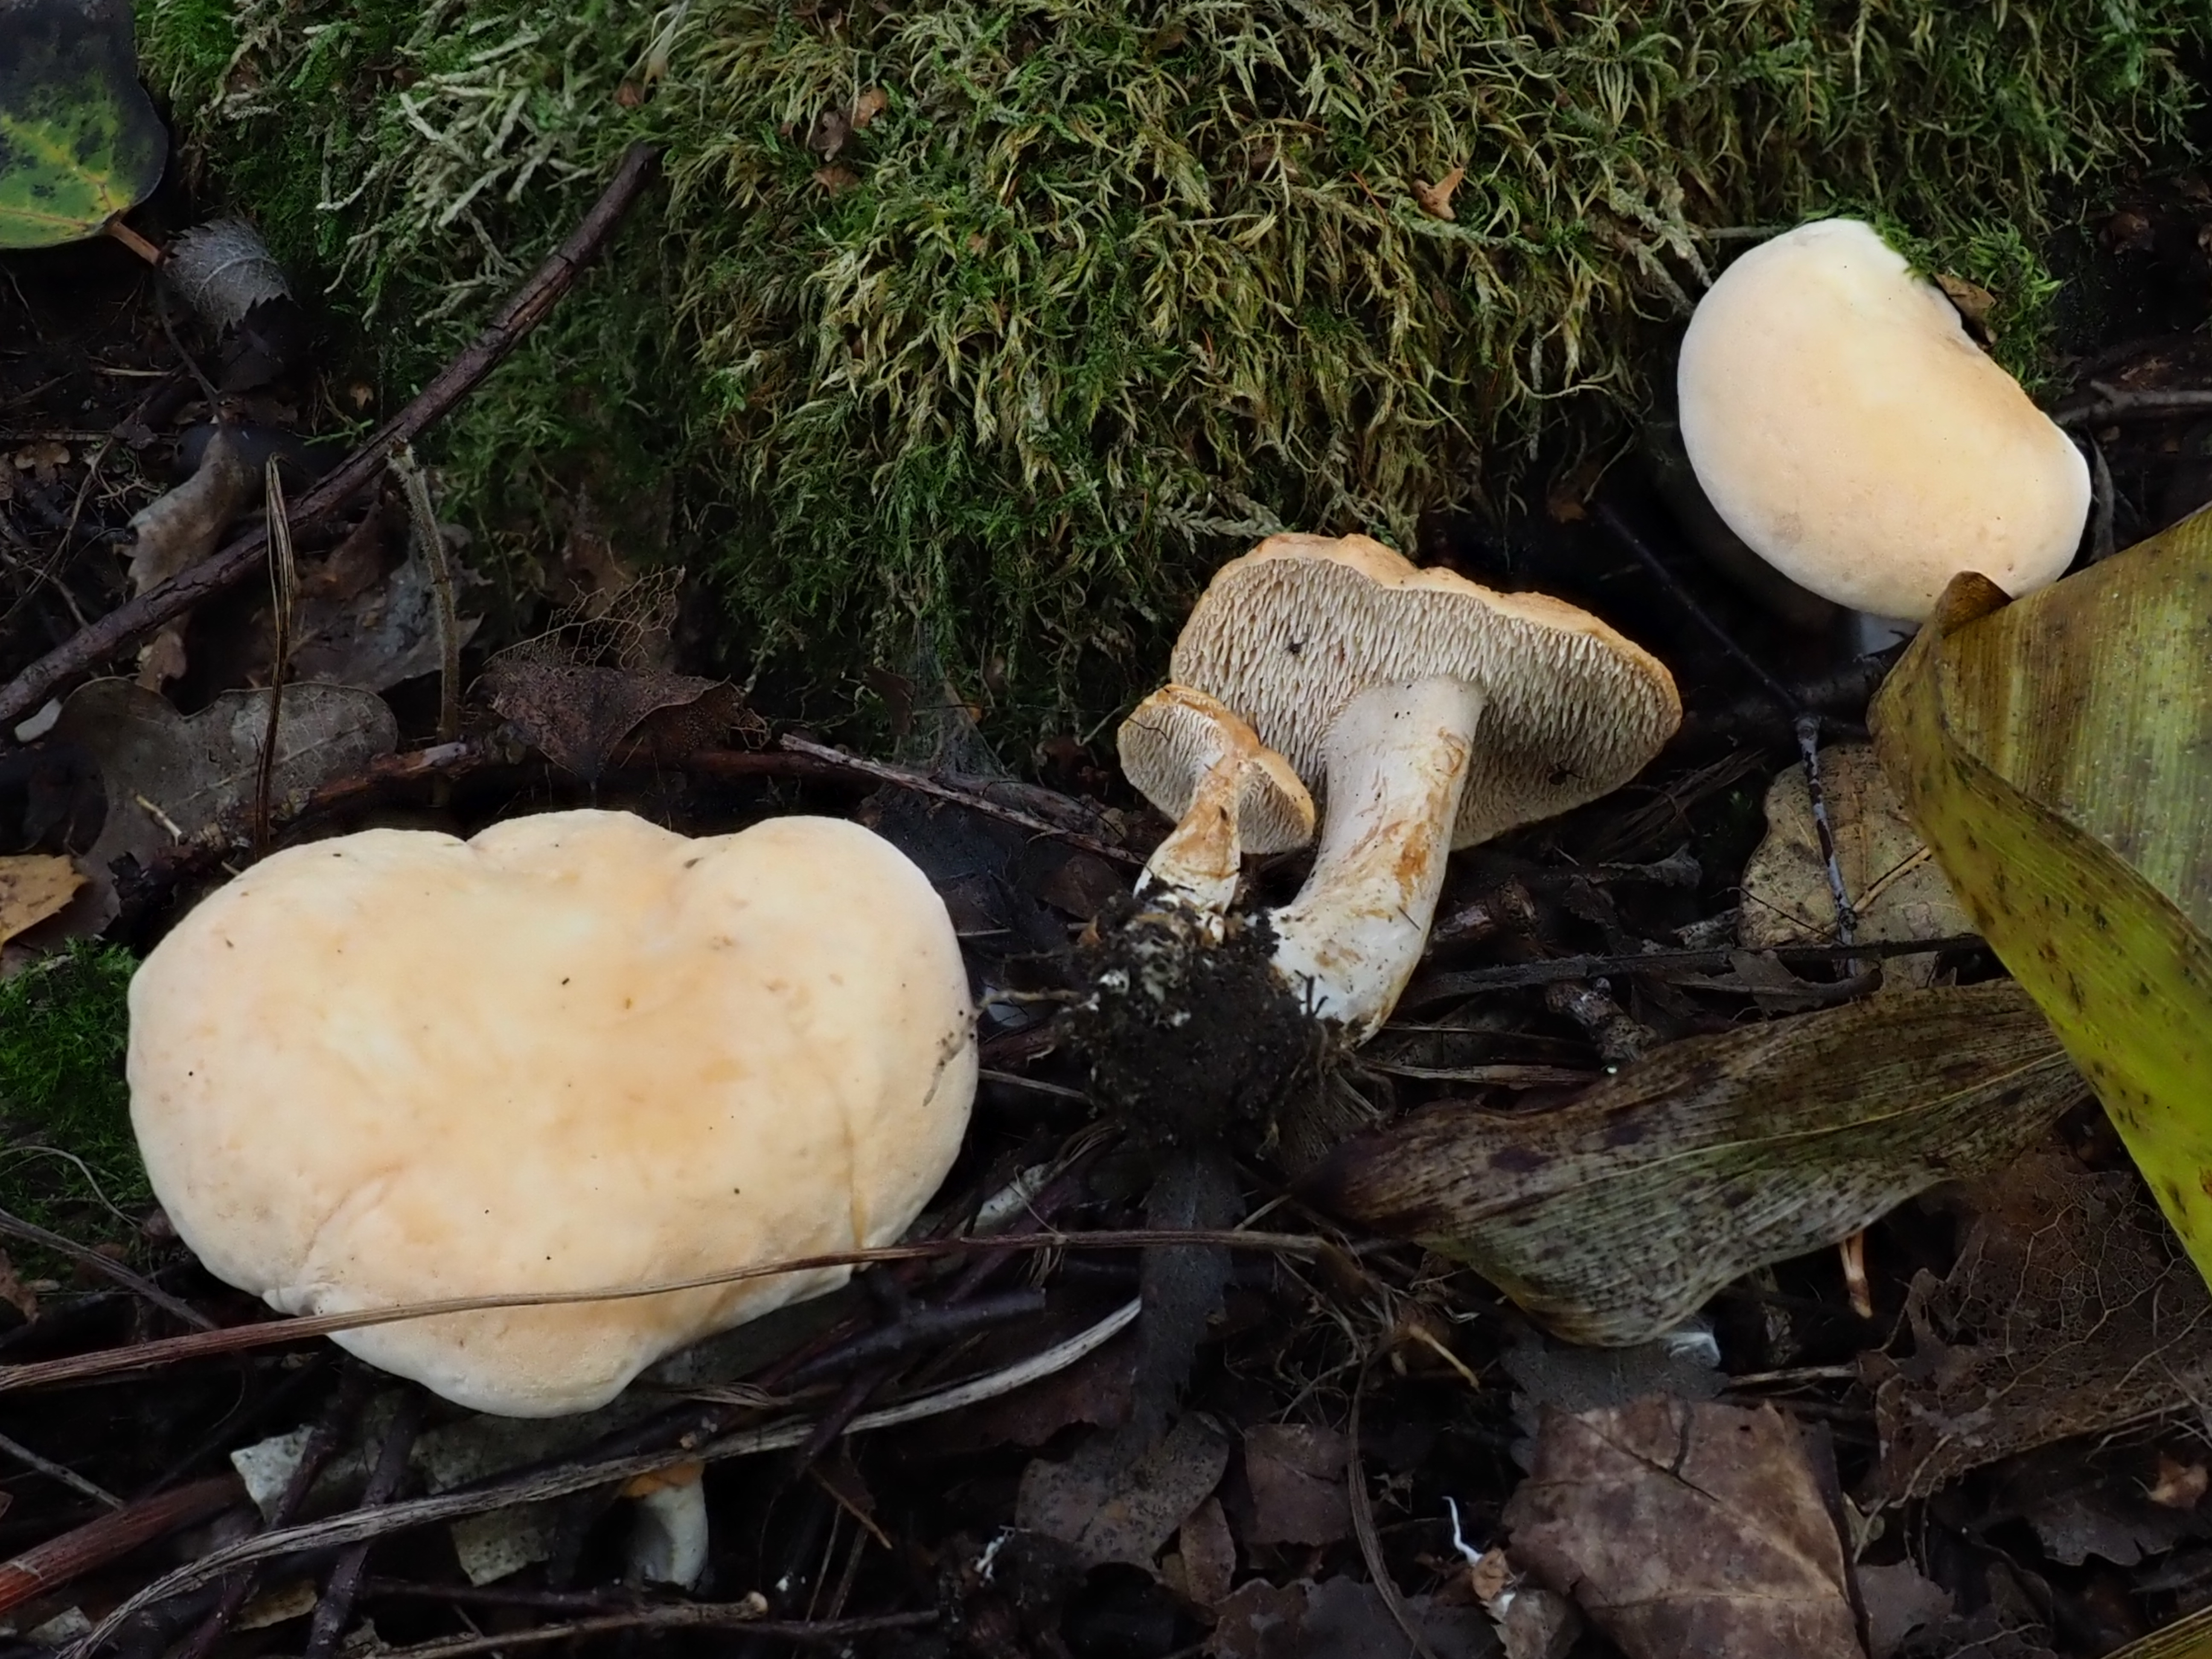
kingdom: Fungi
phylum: Basidiomycota
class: Agaricomycetes
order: Cantharellales
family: Hydnaceae
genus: Hydnum
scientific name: Hydnum rufescens
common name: Terracotta hedgehog
